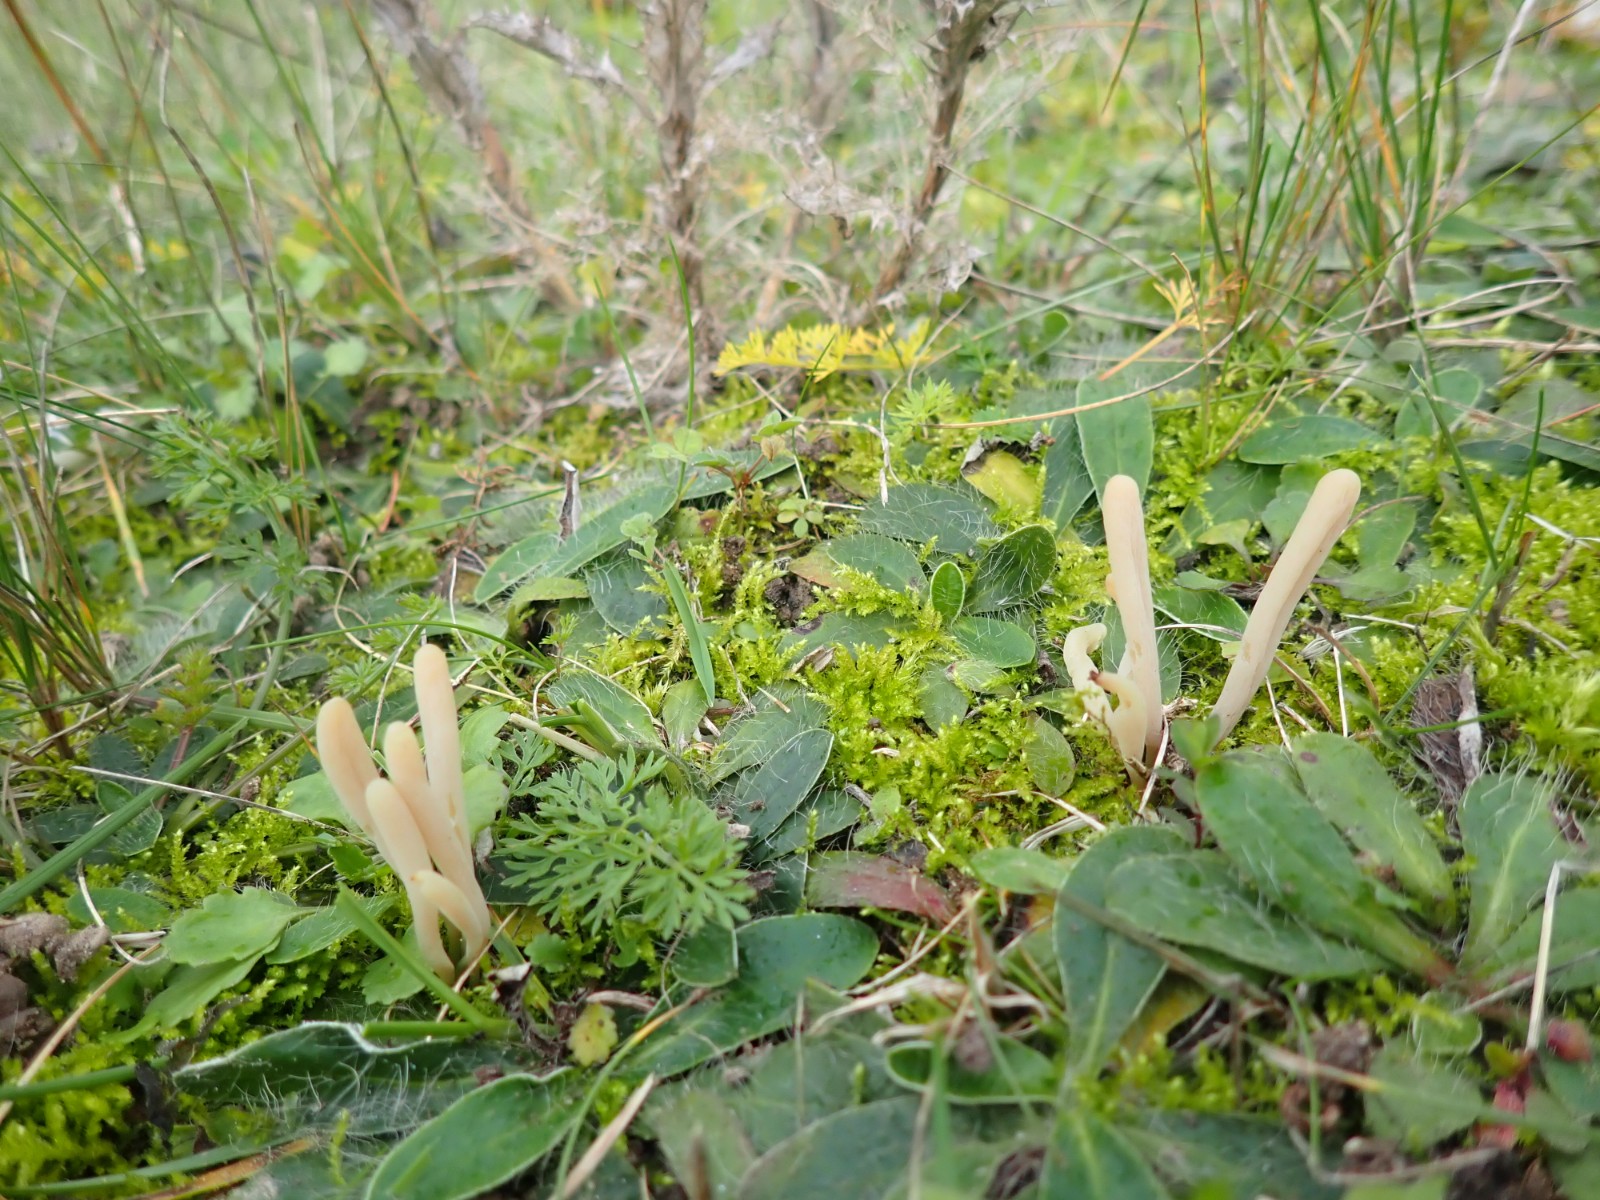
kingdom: Fungi
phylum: Basidiomycota
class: Agaricomycetes
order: Agaricales
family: Clavariaceae
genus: Clavaria
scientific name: Clavaria tenuipes
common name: isabellafarvet køllesvamp
